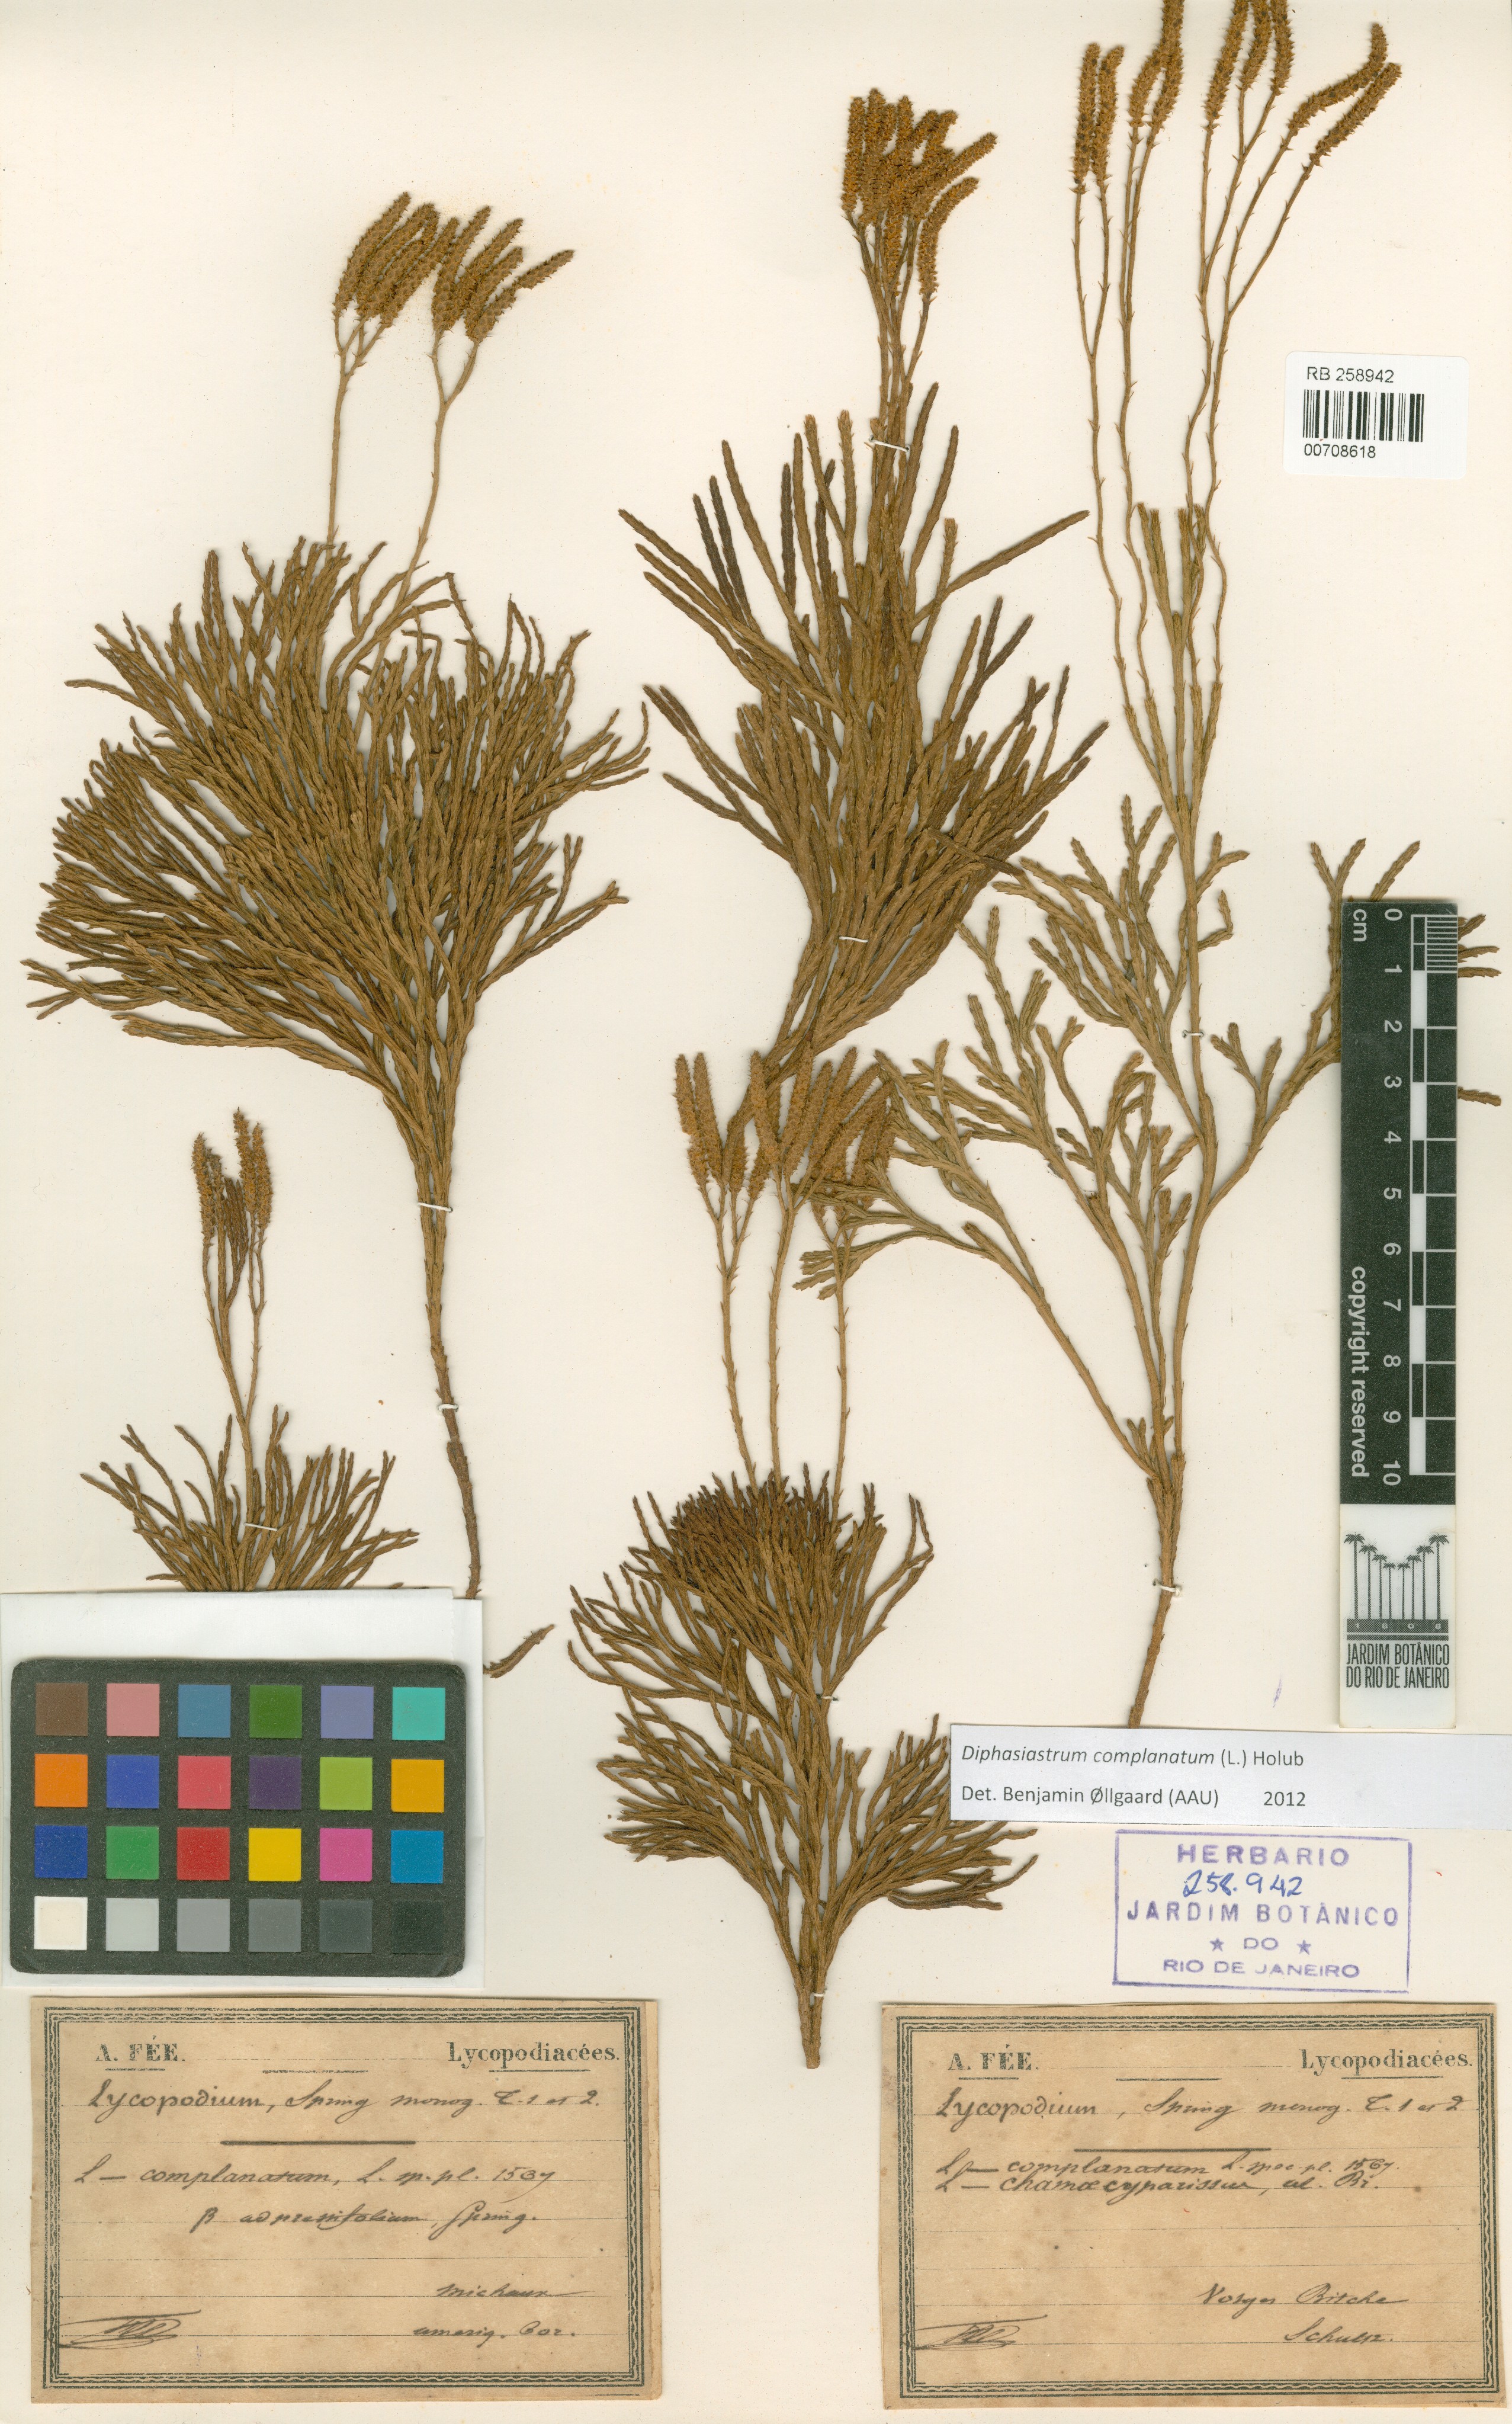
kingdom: Plantae
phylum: Tracheophyta
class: Lycopodiopsida
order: Lycopodiales
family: Lycopodiaceae
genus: Diphasiastrum
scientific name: Diphasiastrum complanatum
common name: Northern running-pine
